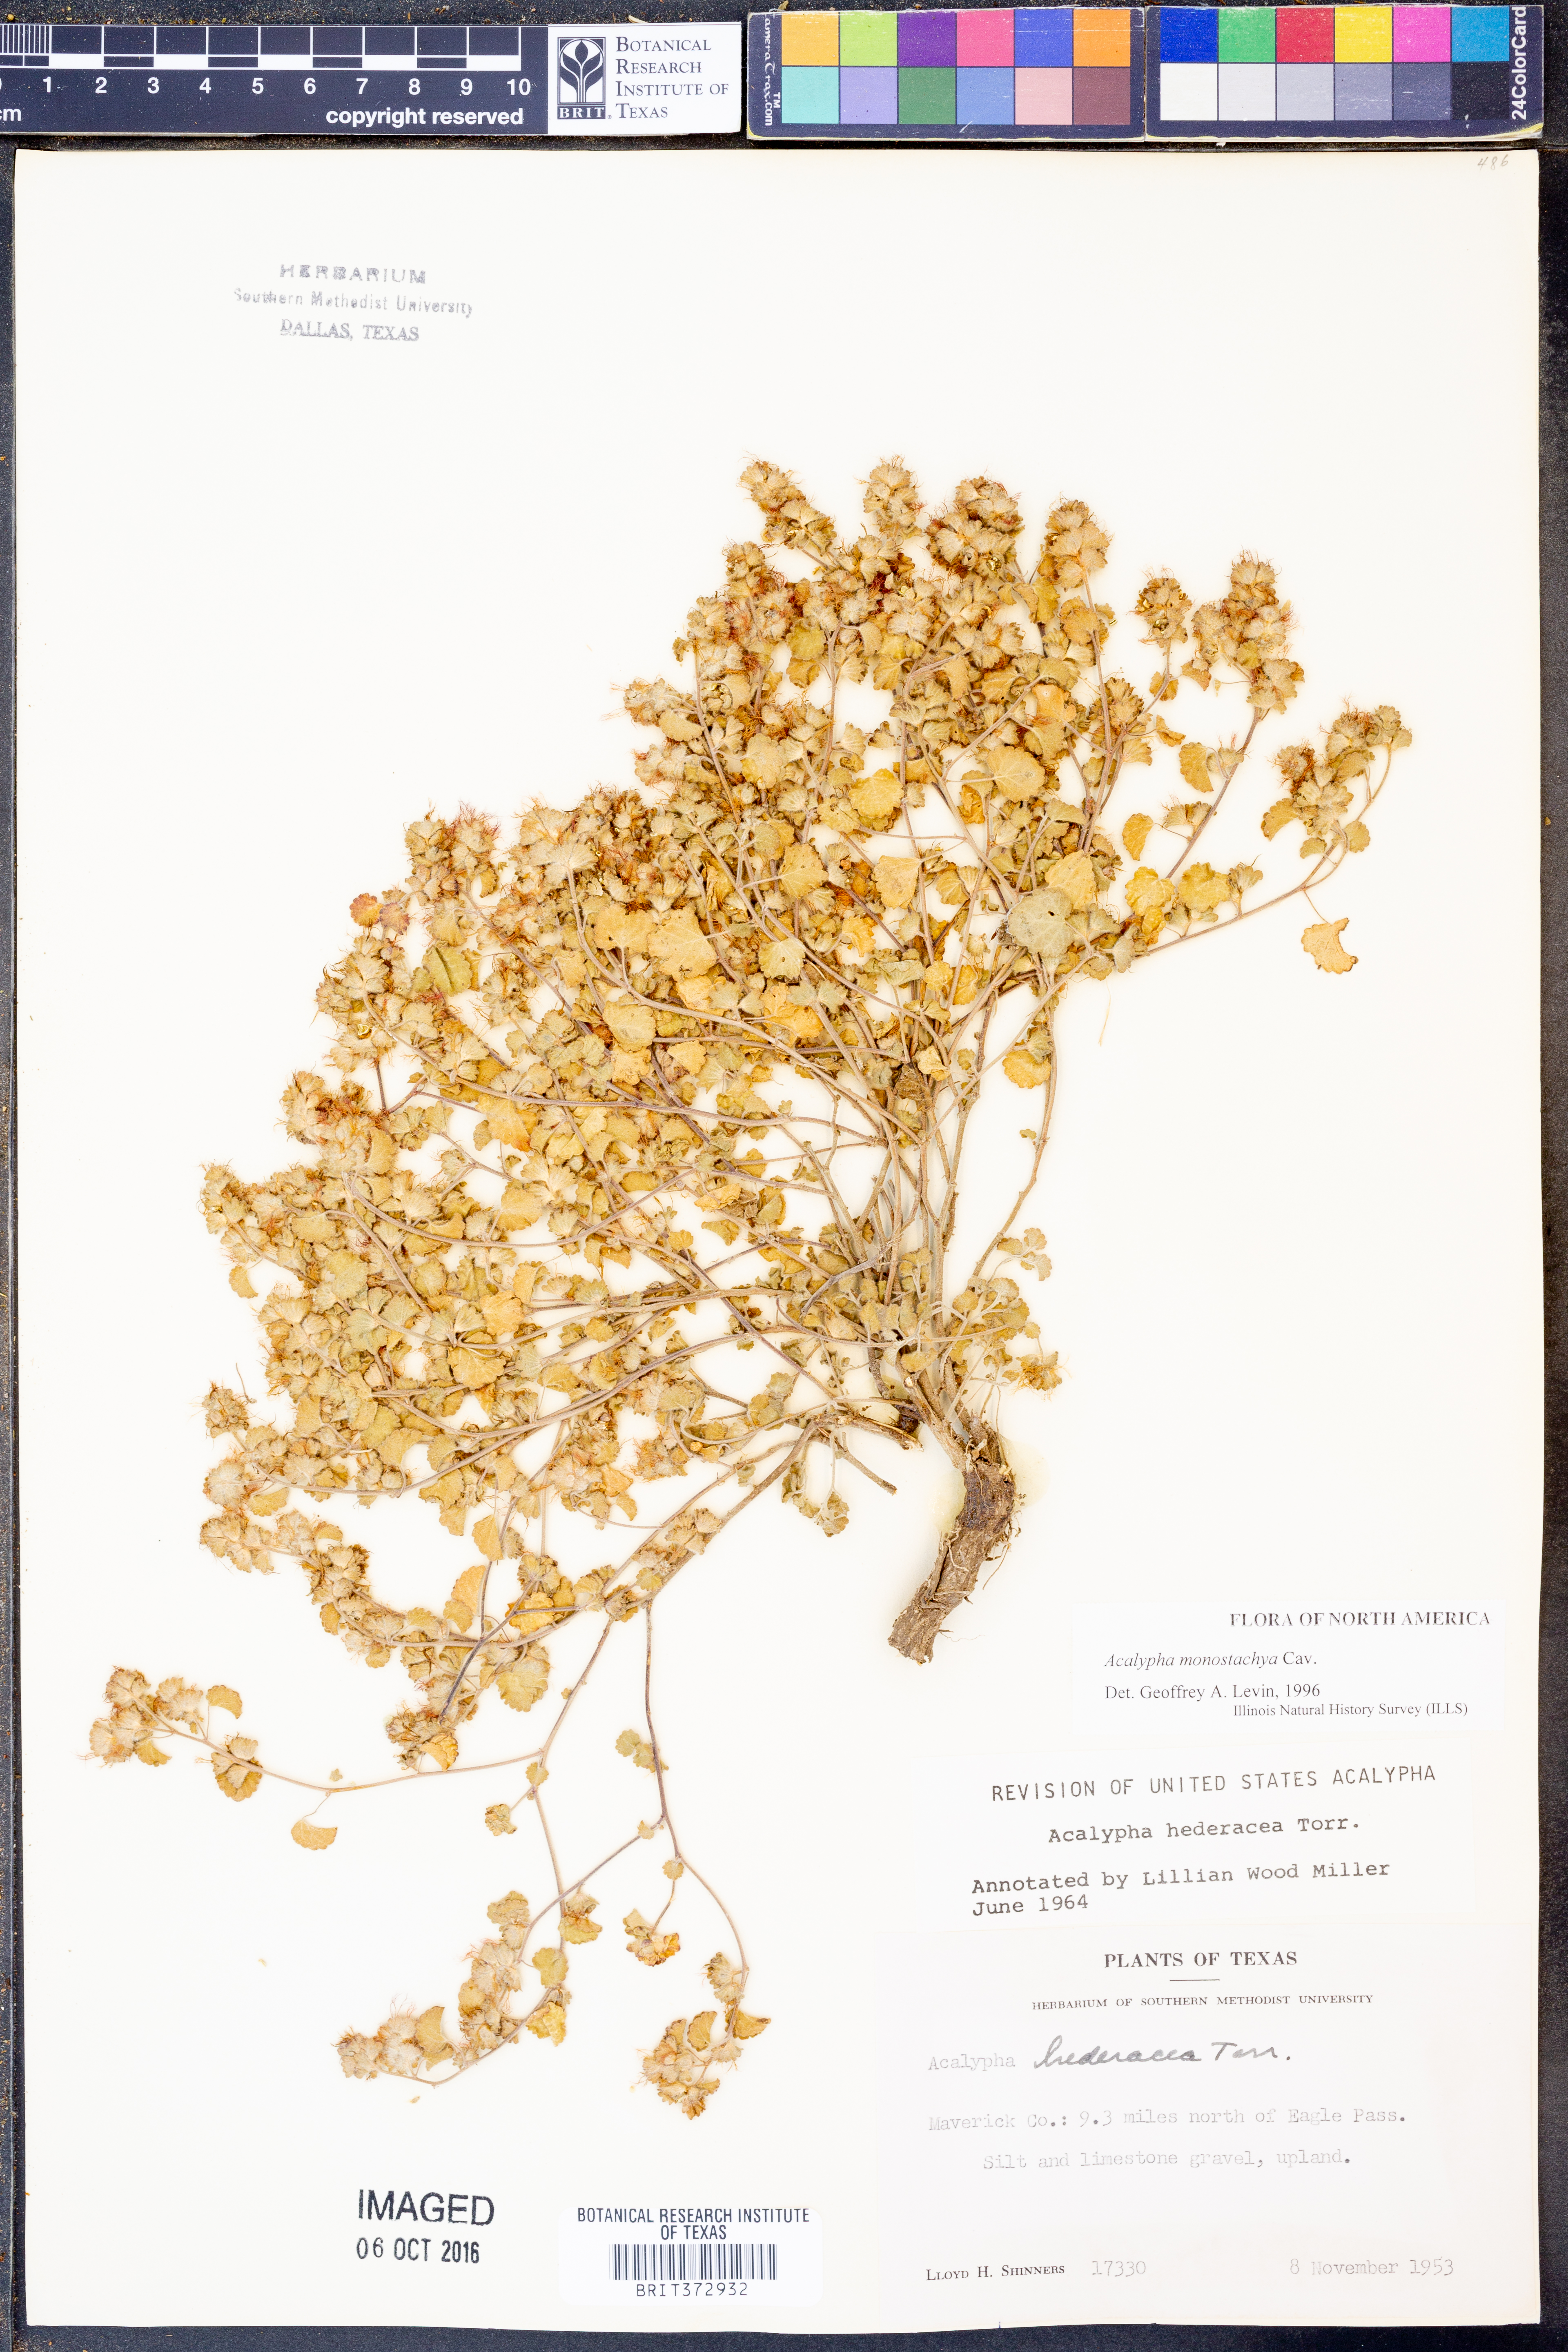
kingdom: Plantae
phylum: Tracheophyta
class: Magnoliopsida
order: Malpighiales
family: Euphorbiaceae
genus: Acalypha
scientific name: Acalypha monostachya
